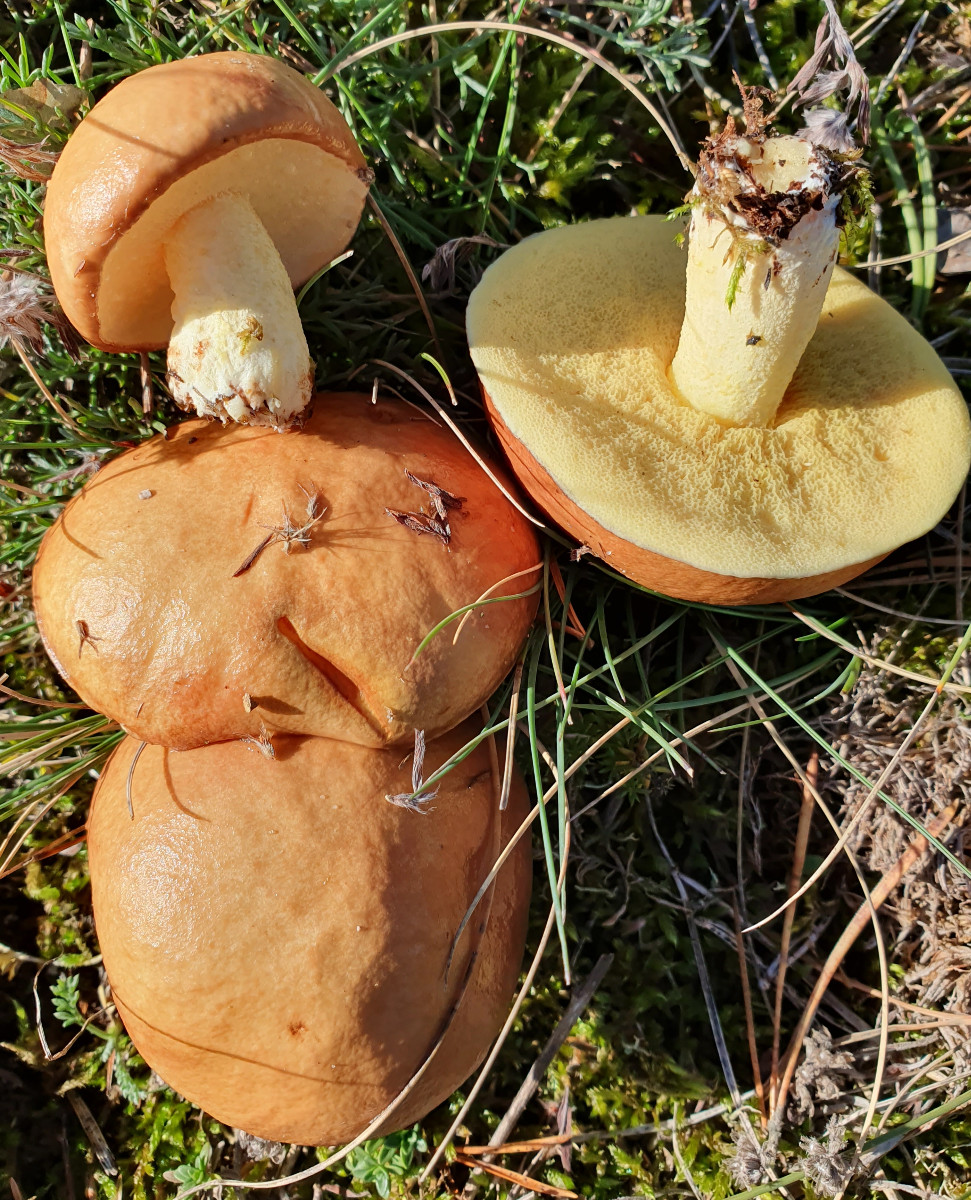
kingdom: Fungi
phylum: Basidiomycota
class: Agaricomycetes
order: Boletales
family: Suillaceae
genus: Suillus
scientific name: Suillus granulatus
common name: kornet slimrørhat
